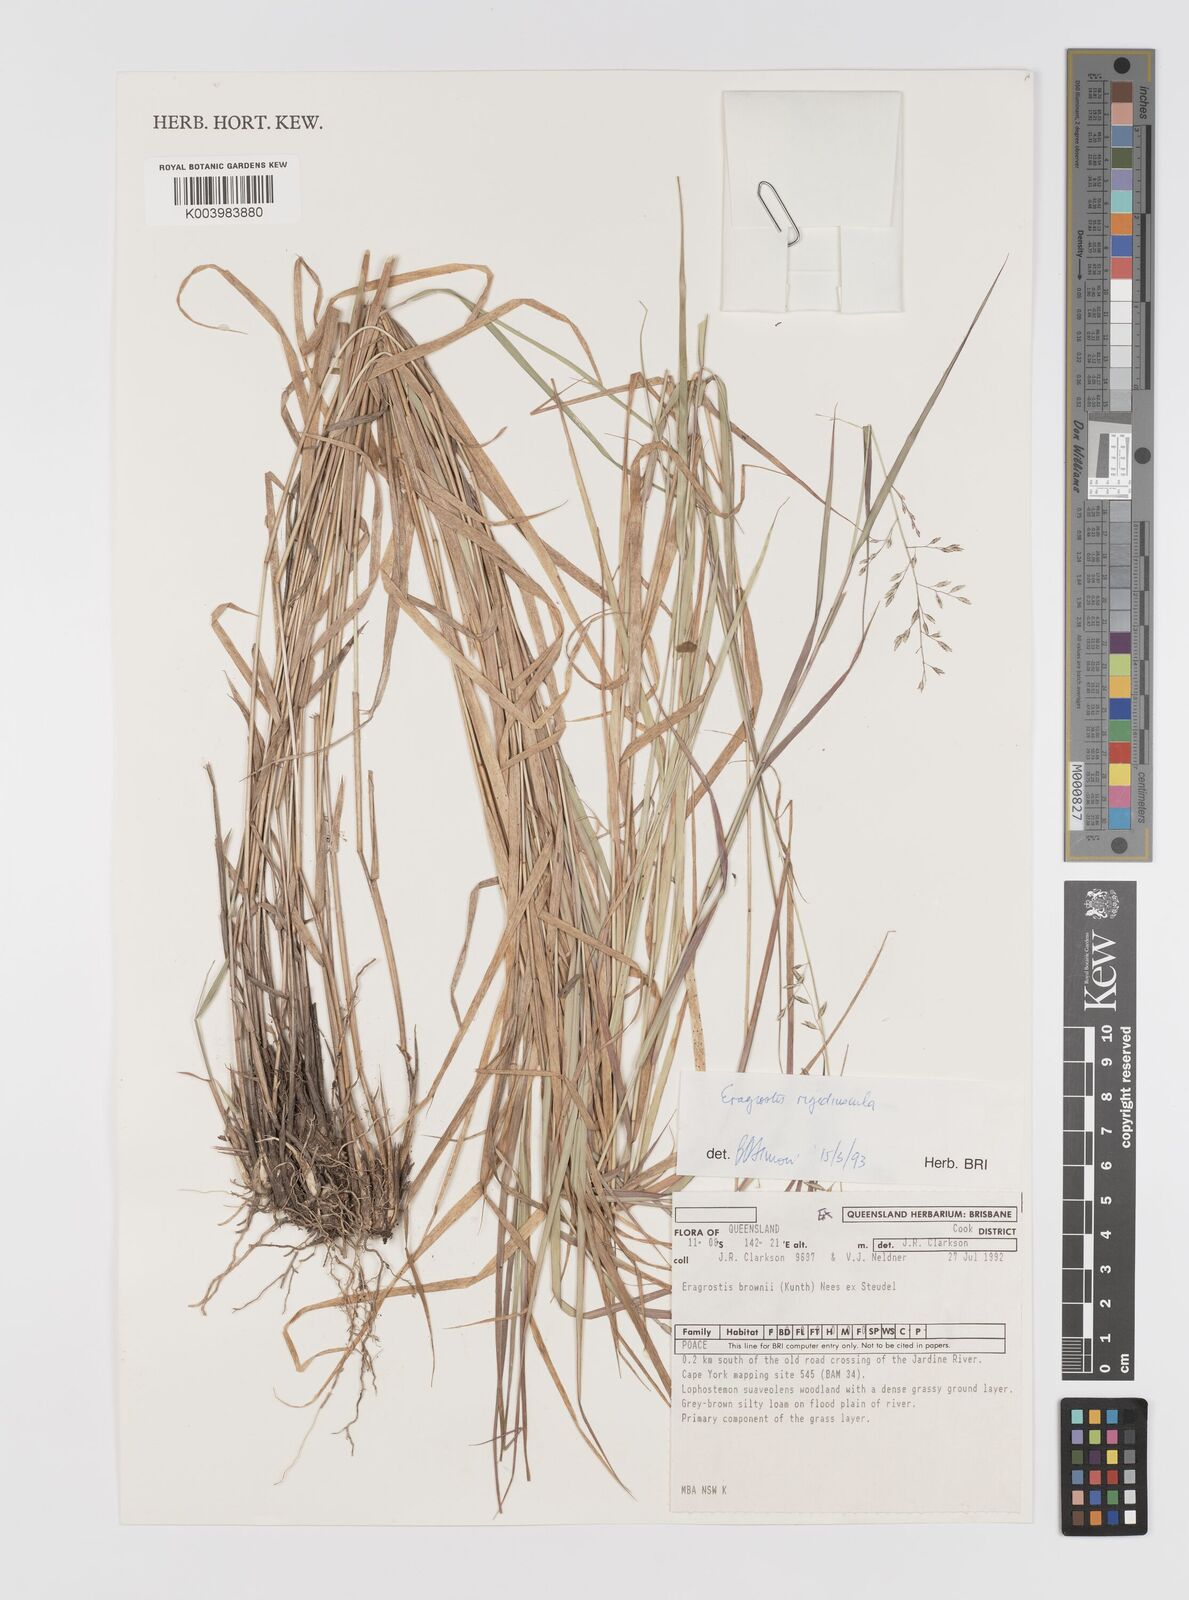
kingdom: Plantae
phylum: Tracheophyta
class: Liliopsida
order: Poales
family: Poaceae
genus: Eragrostis
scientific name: Eragrostis rigidiuscula
